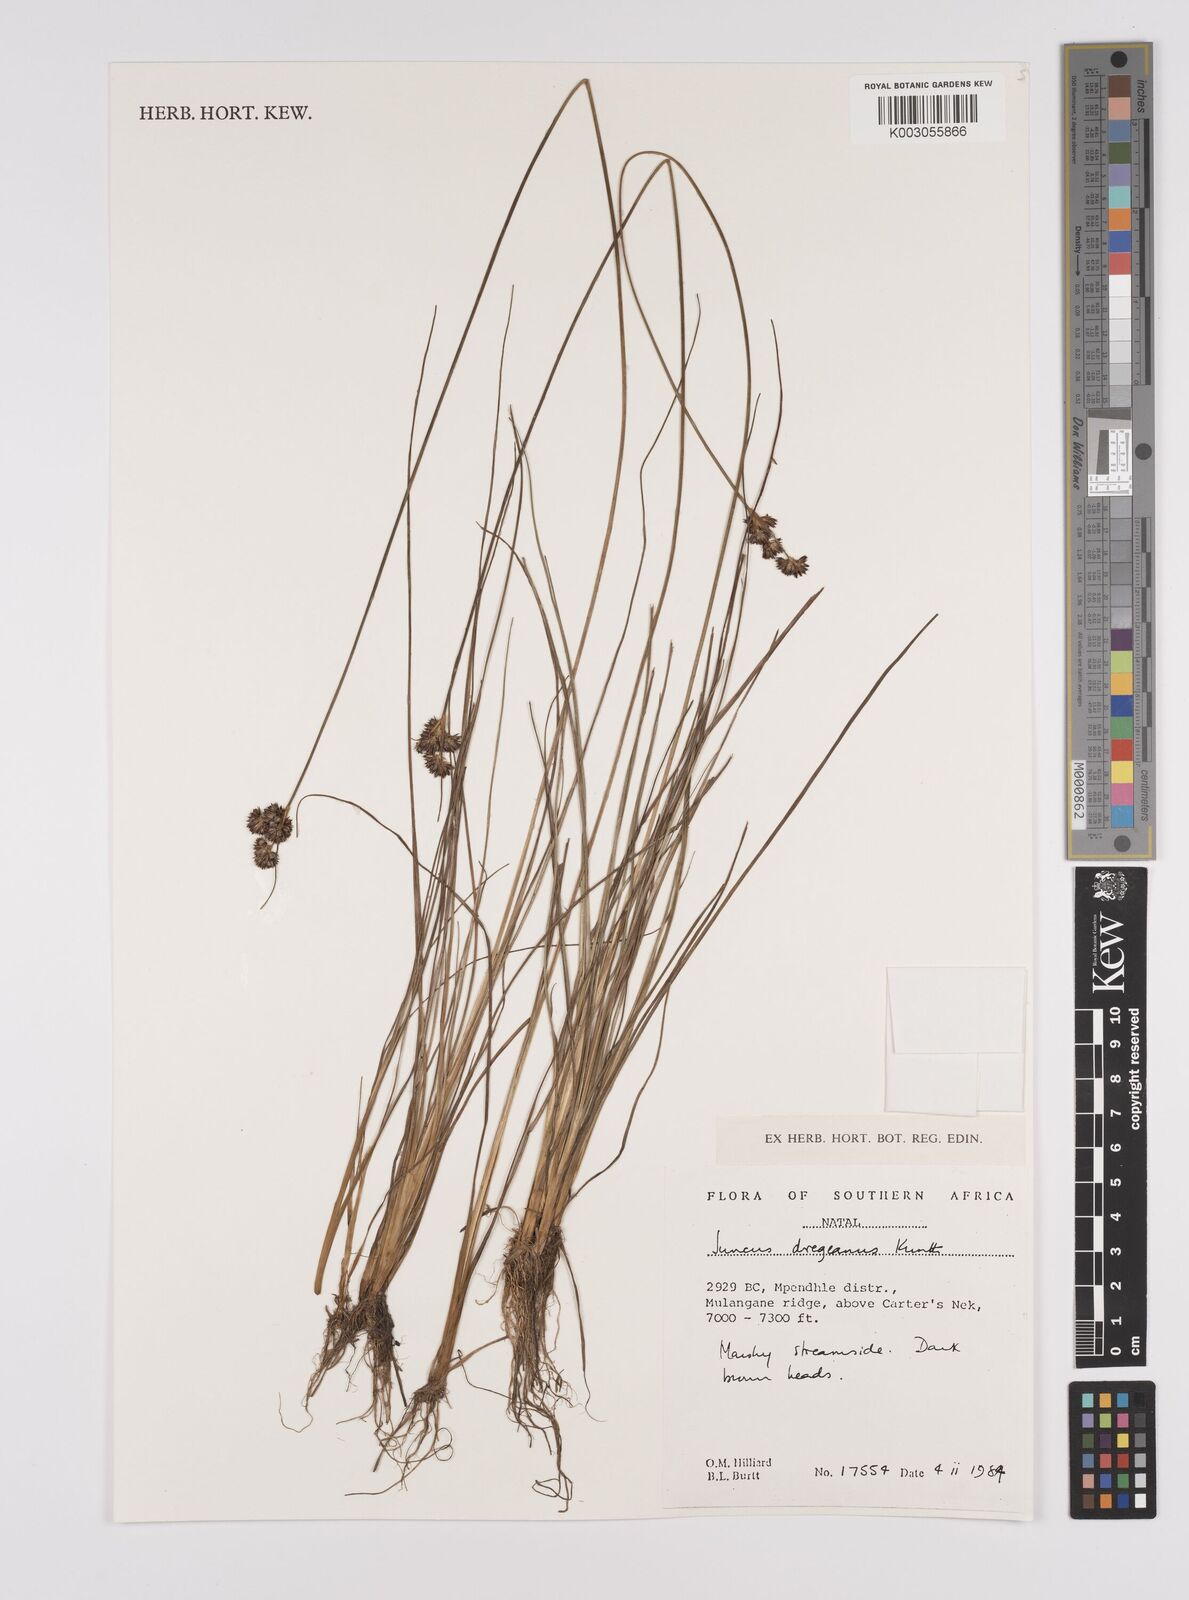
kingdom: Plantae
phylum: Tracheophyta
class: Liliopsida
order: Poales
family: Juncaceae
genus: Juncus
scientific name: Juncus dregeanus
